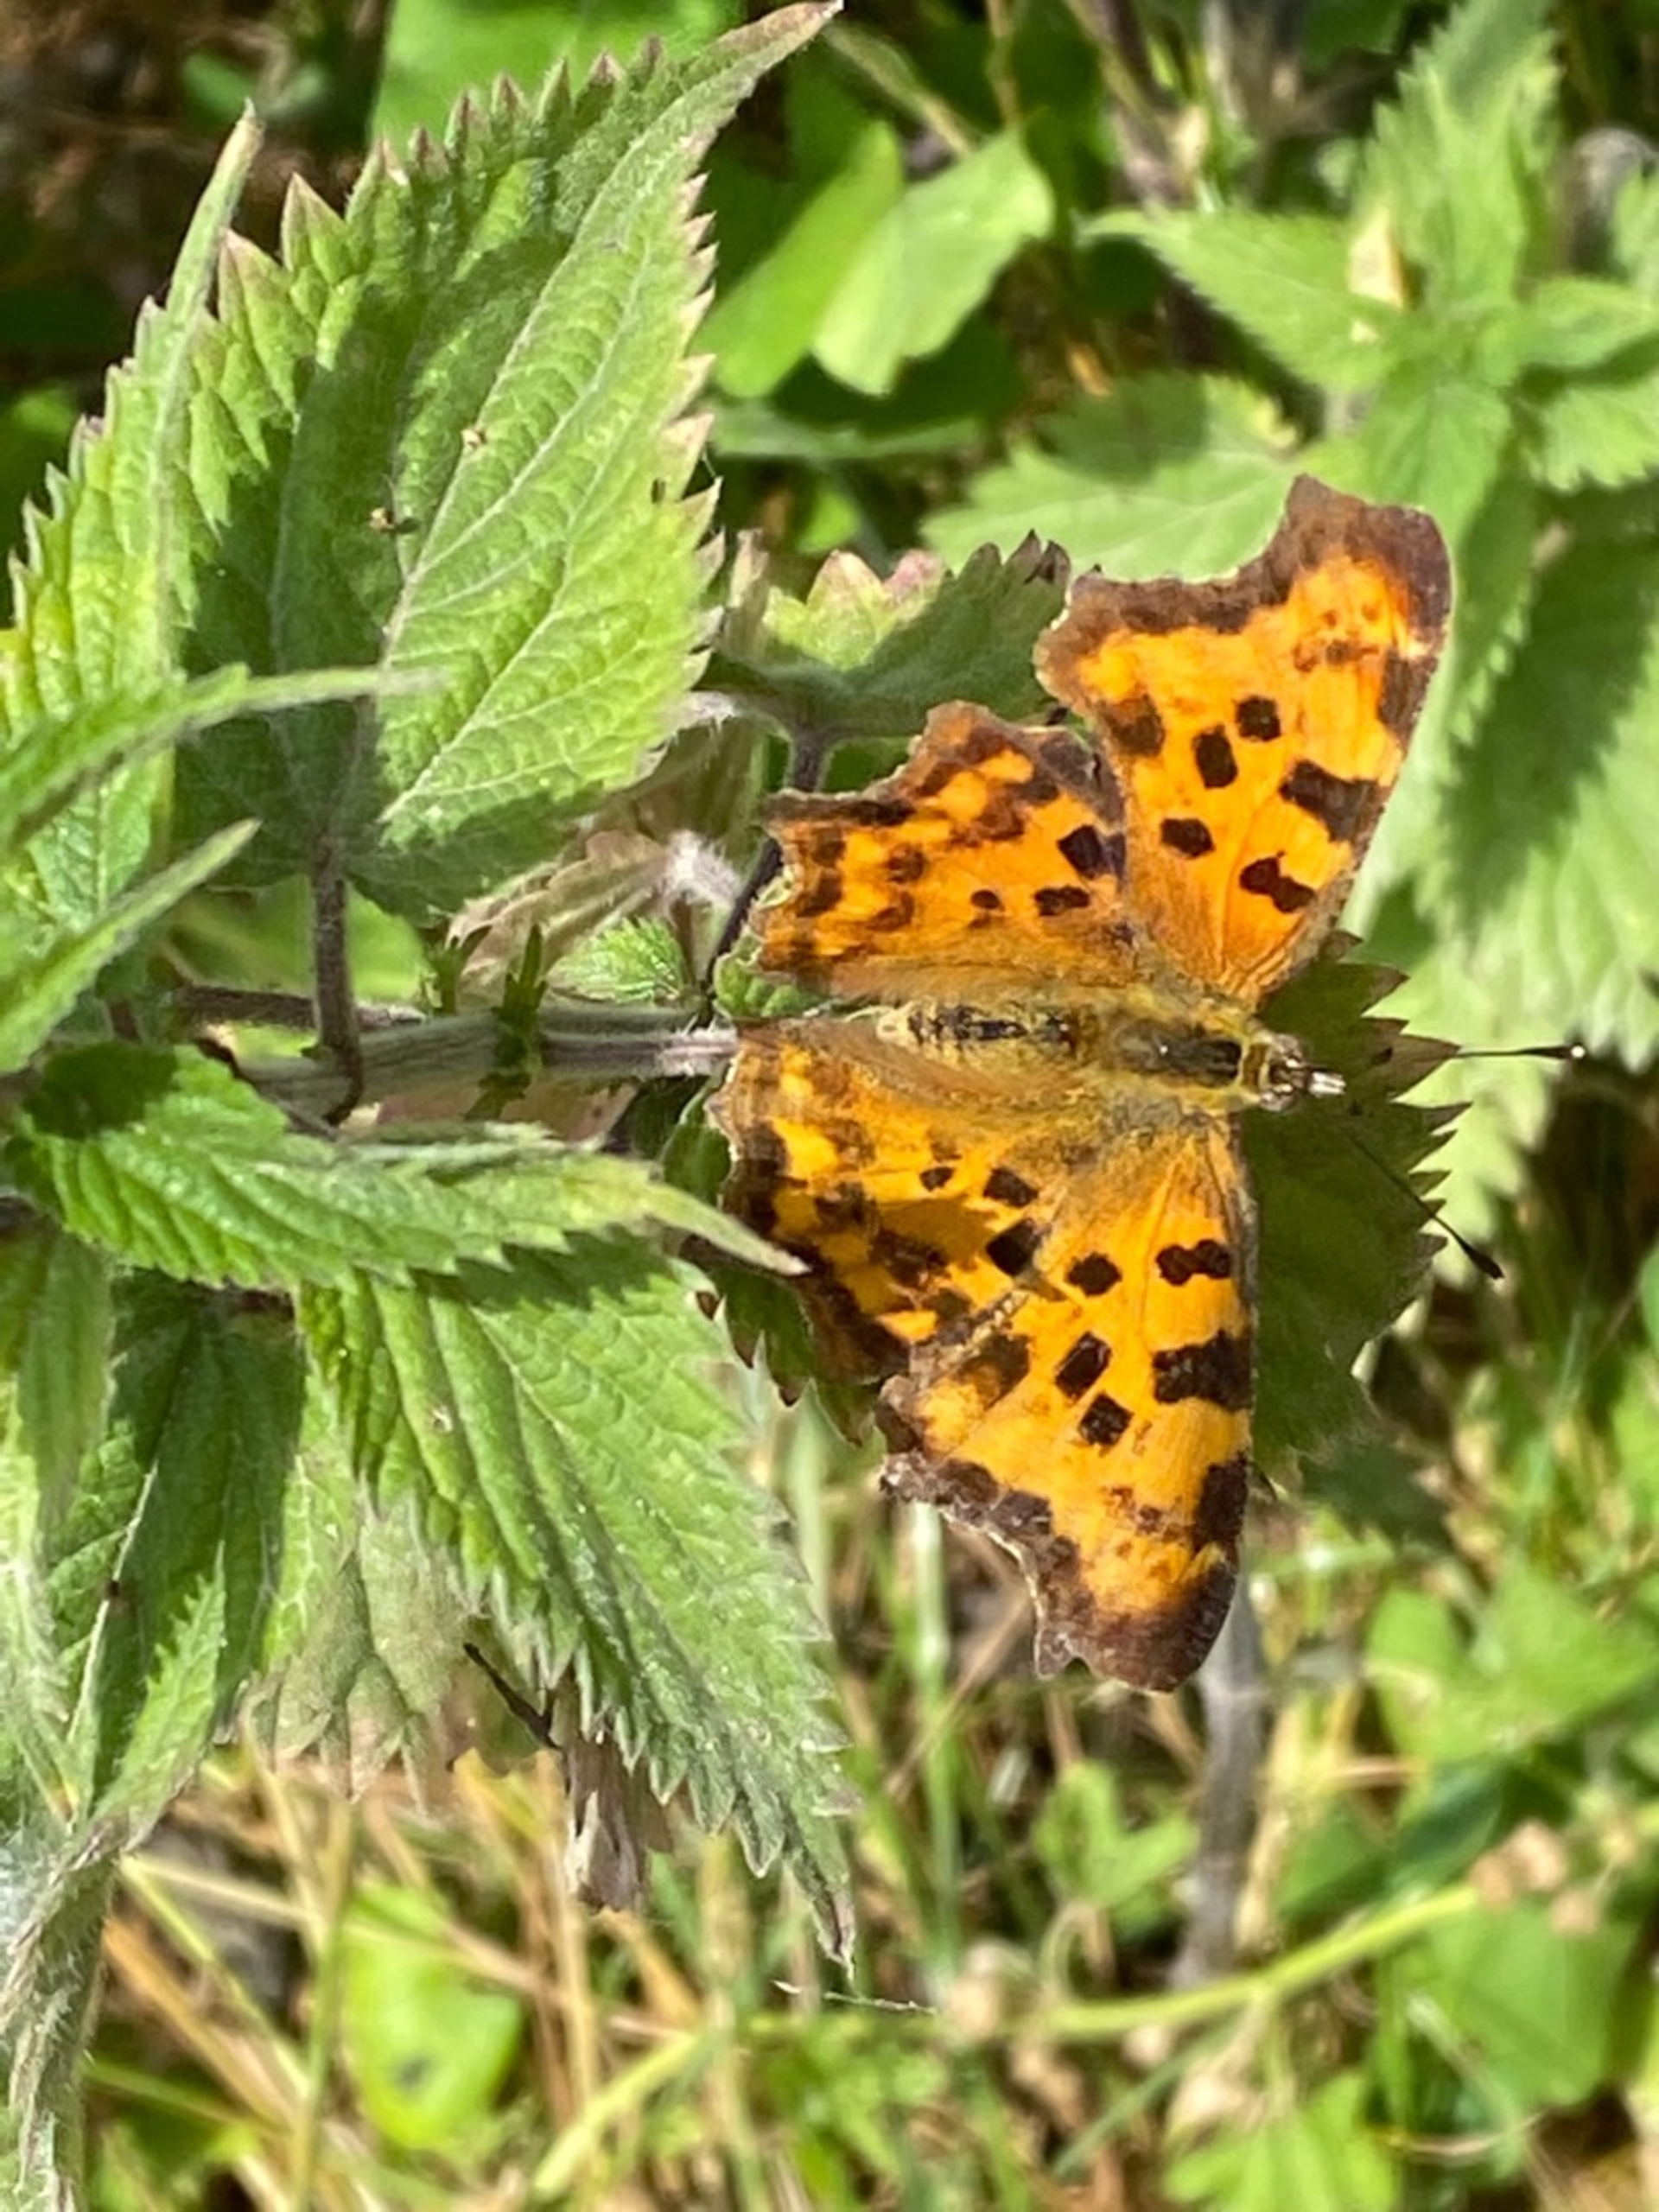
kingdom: Animalia
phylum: Arthropoda
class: Insecta
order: Lepidoptera
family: Nymphalidae
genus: Polygonia
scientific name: Polygonia c-album
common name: Det hvide C
